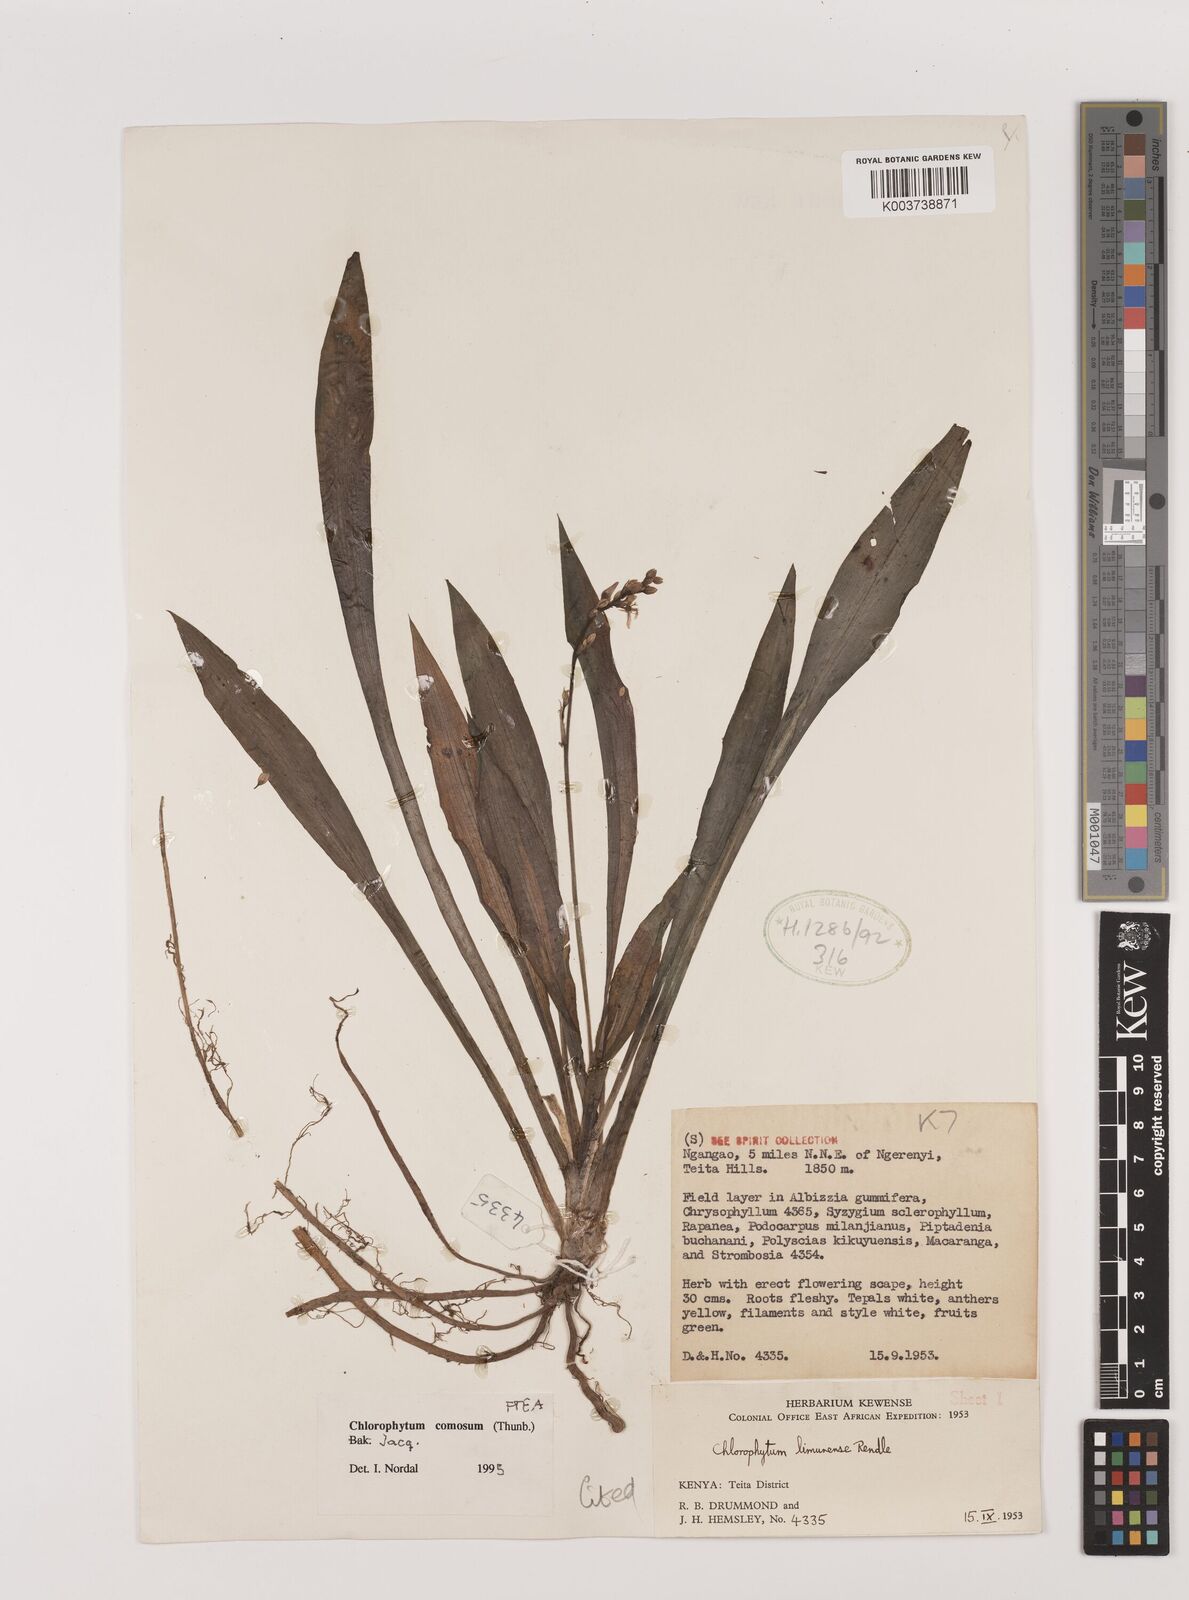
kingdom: Plantae
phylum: Tracheophyta
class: Liliopsida
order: Asparagales
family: Asparagaceae
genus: Chlorophytum
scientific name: Chlorophytum comosum
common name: Spider plant
